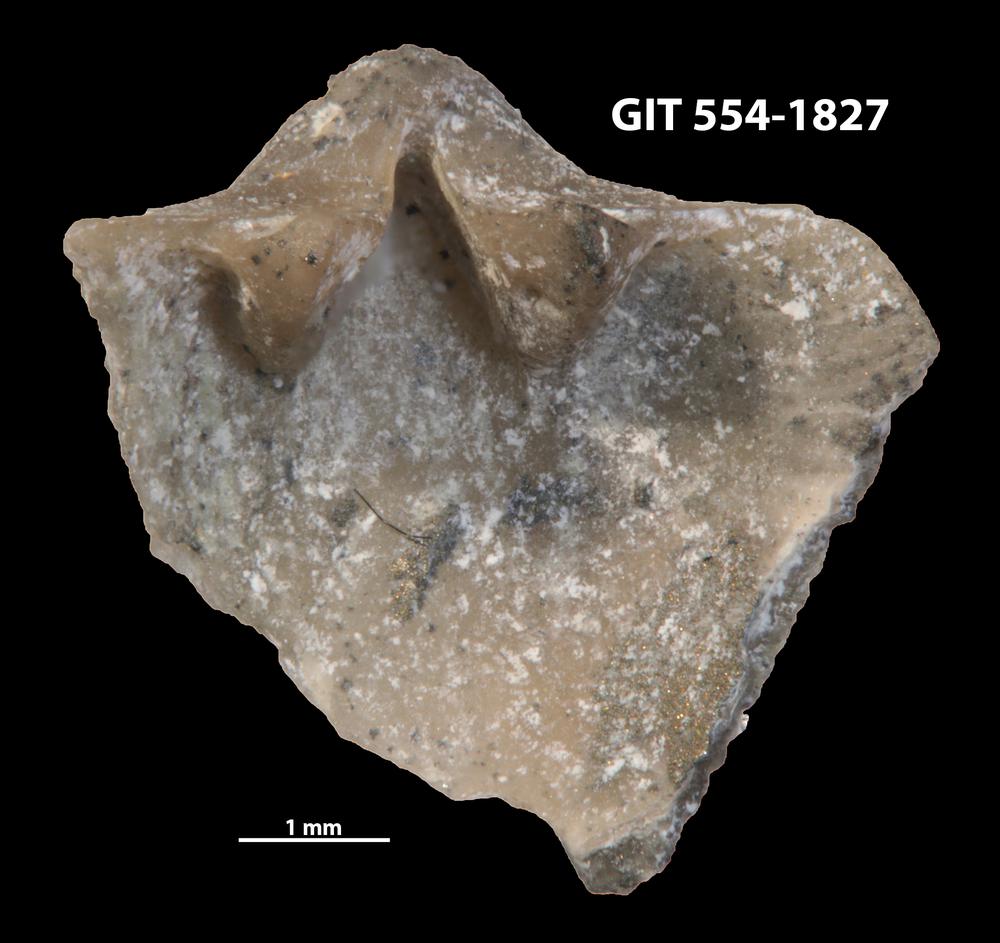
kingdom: Animalia
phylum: Brachiopoda
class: Rhynchonellata
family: Dalmanellidae
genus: Onniella
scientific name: Onniella trigona
